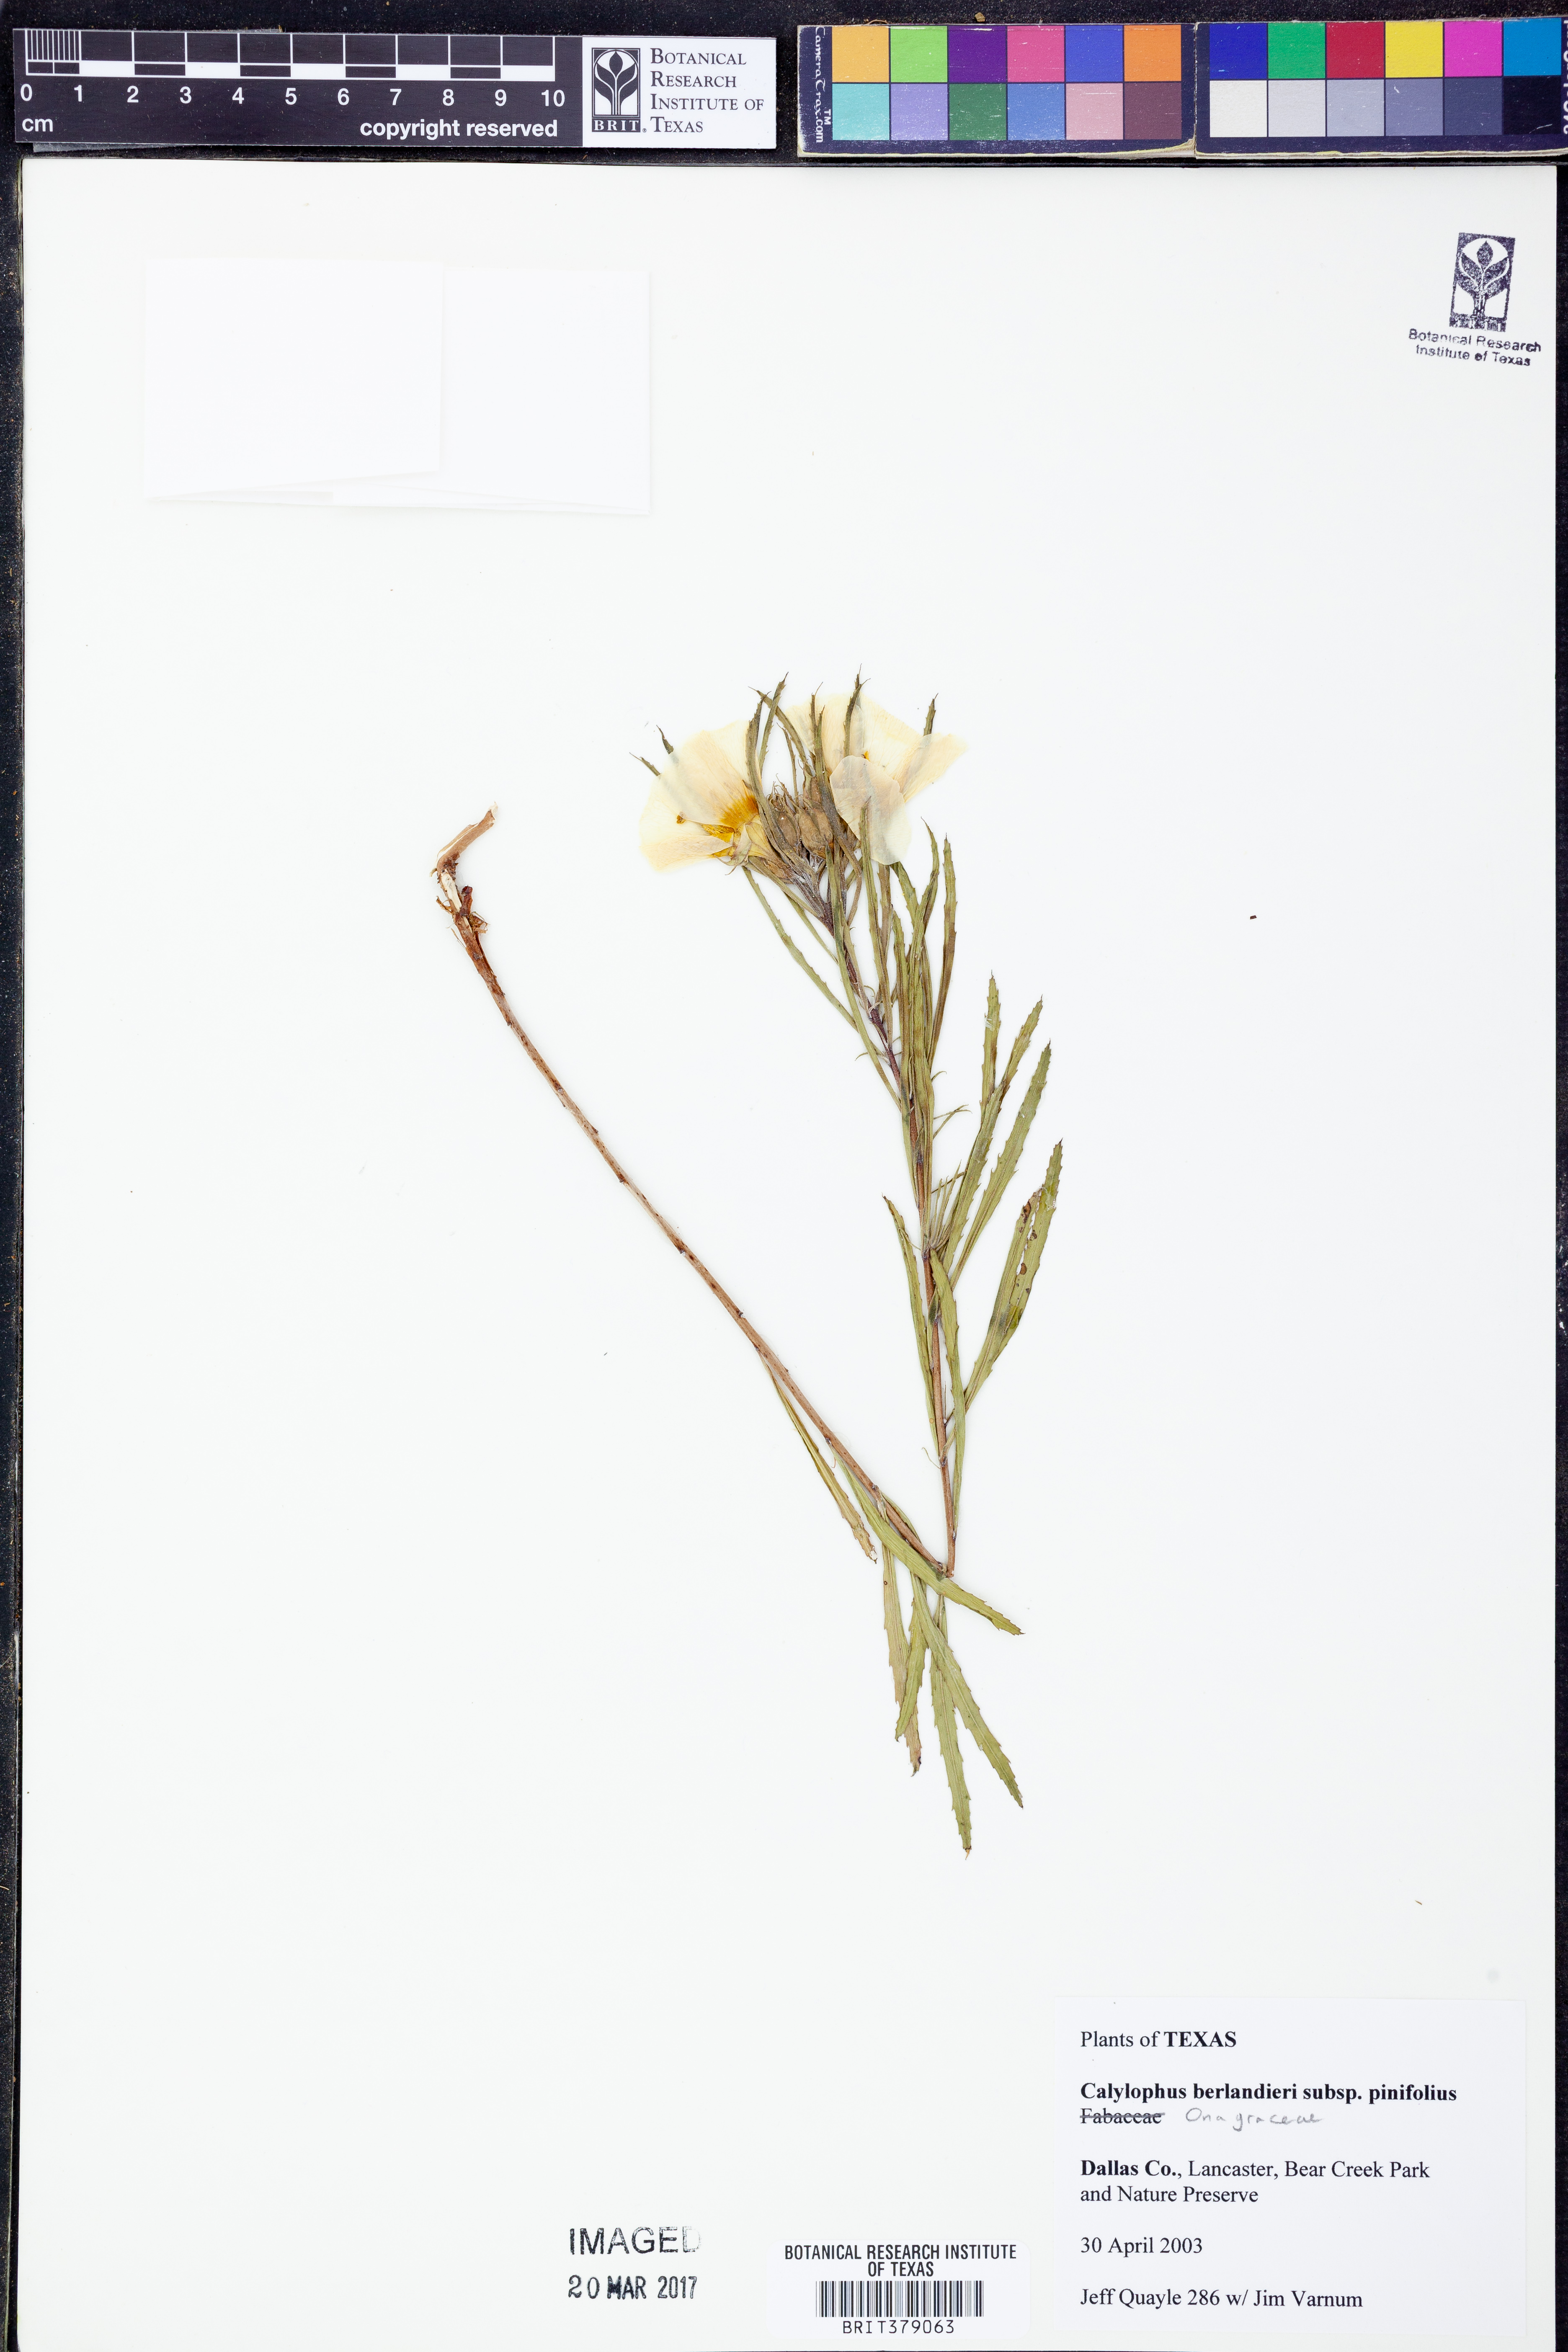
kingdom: Plantae
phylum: Tracheophyta
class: Magnoliopsida
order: Myrtales
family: Onagraceae
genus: Oenothera
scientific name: Oenothera capillifolia
